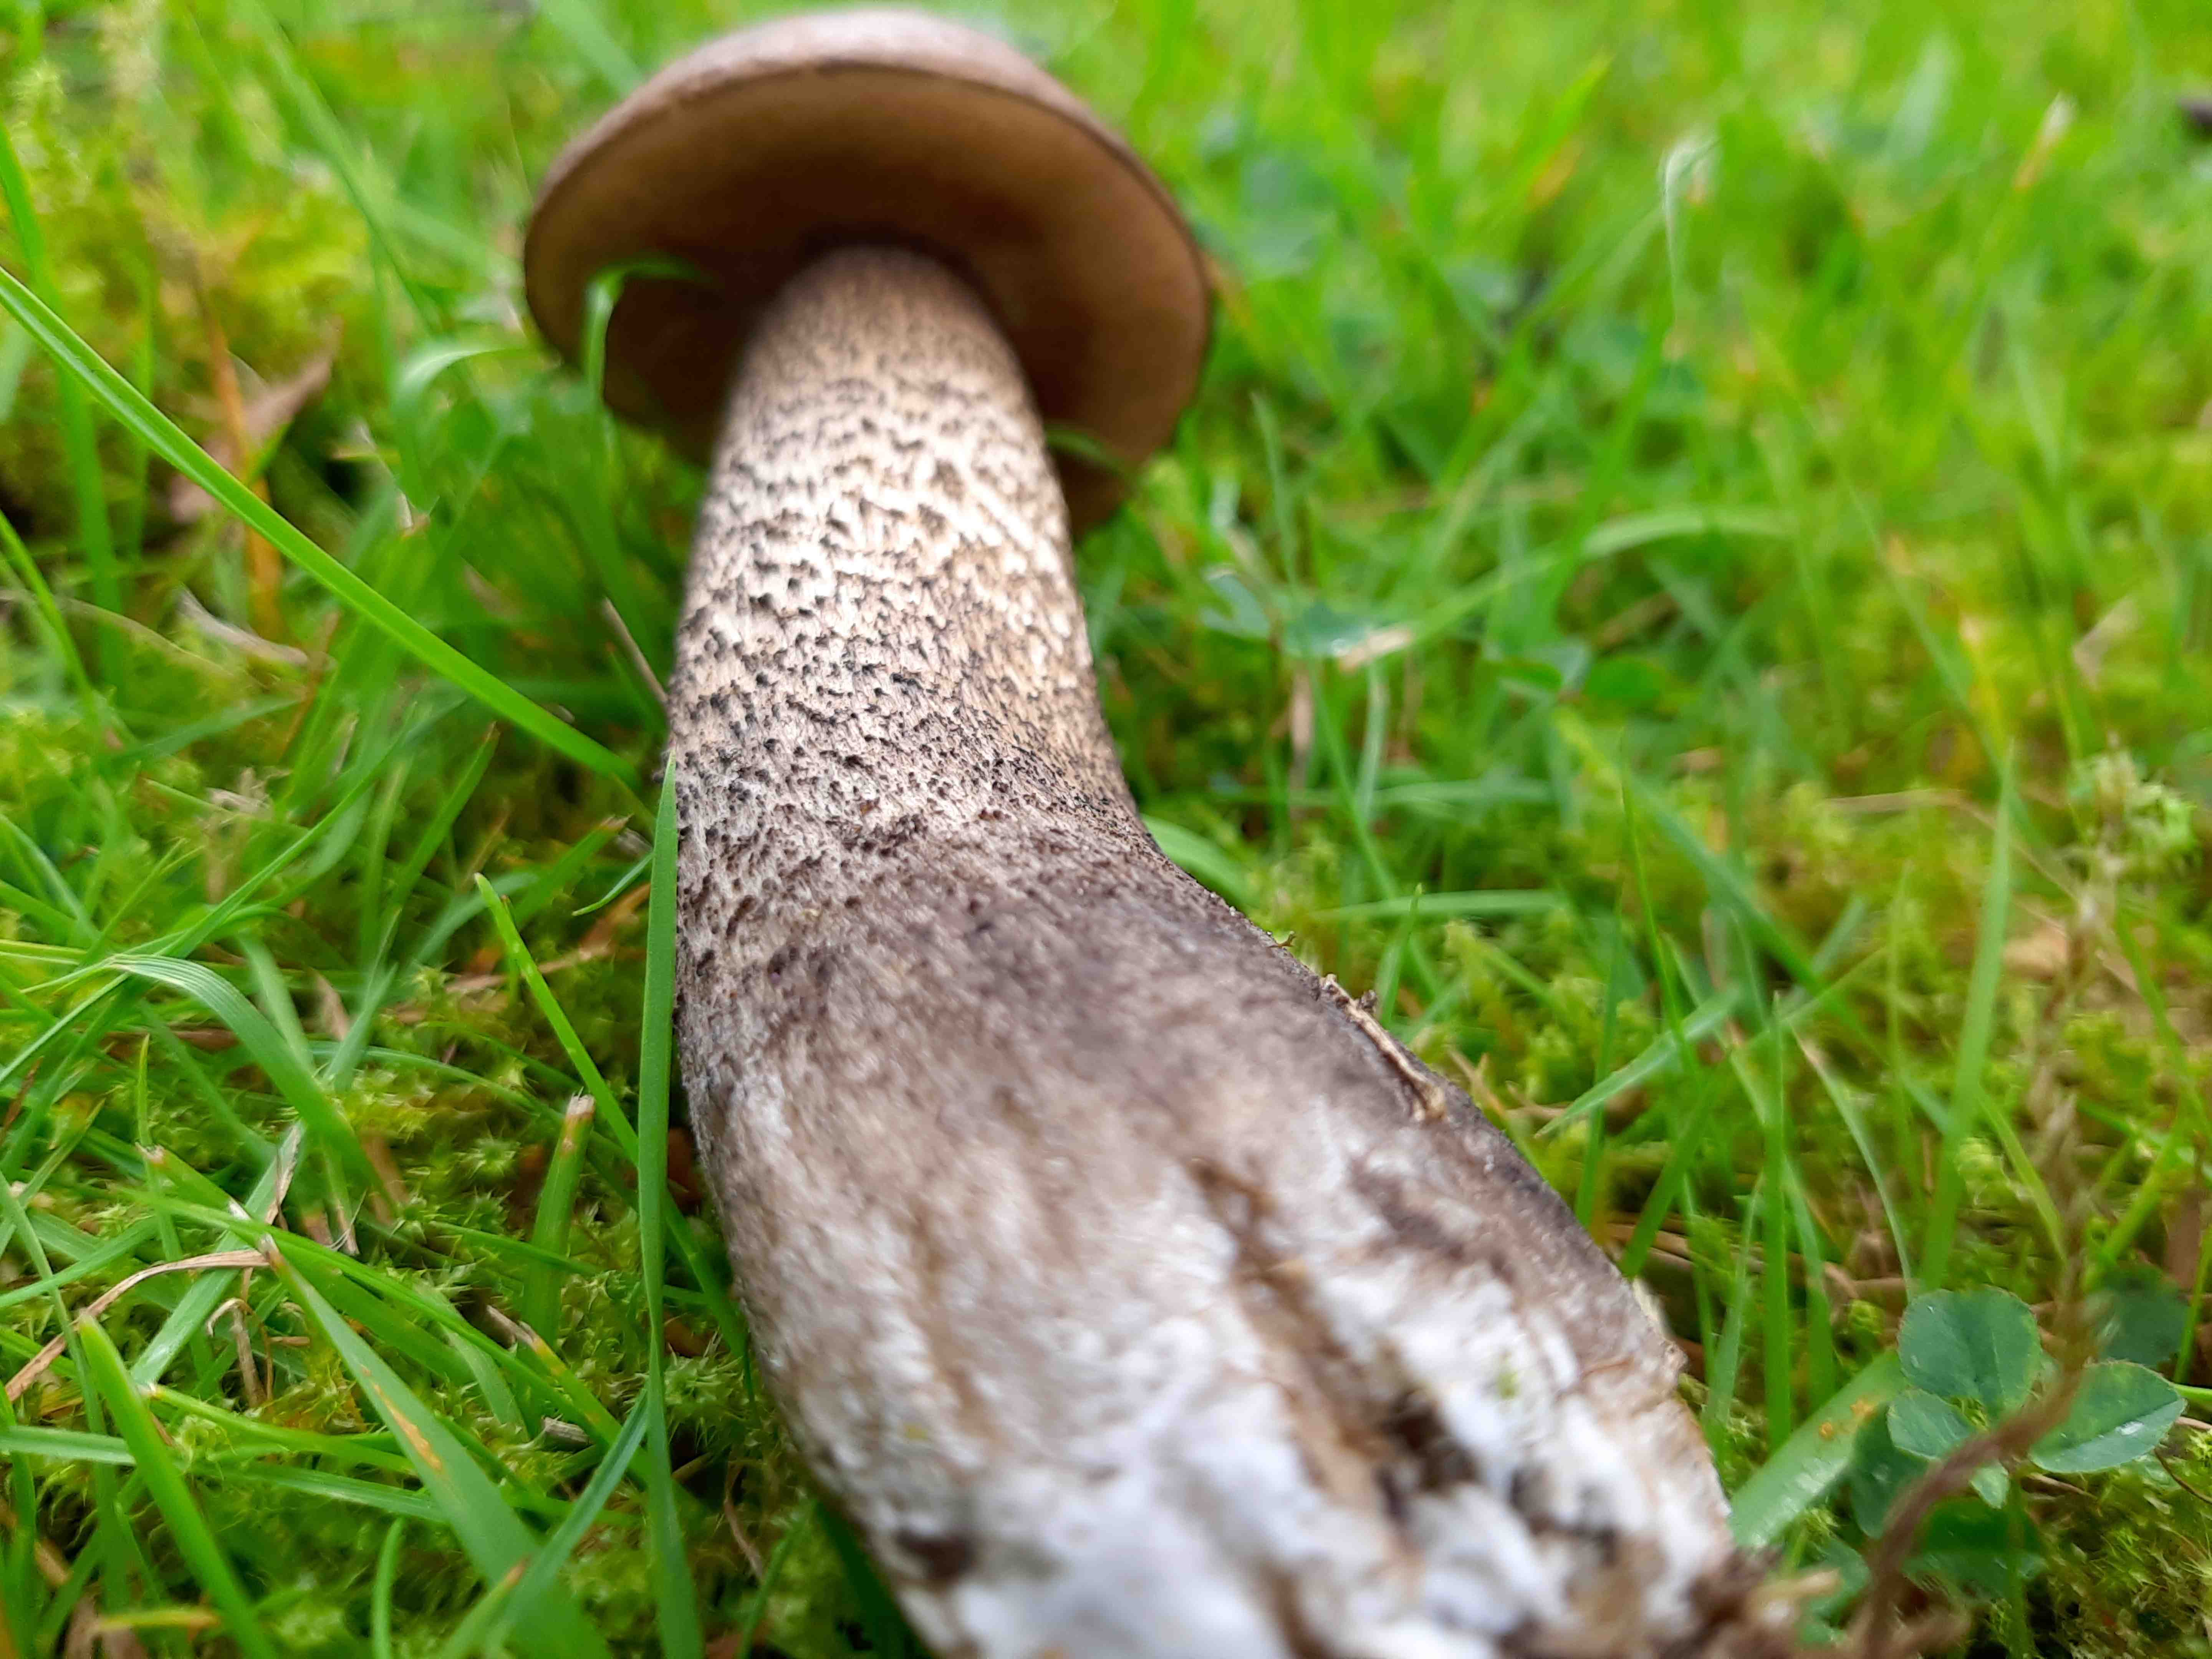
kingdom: Fungi
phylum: Basidiomycota
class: Agaricomycetes
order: Boletales
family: Boletaceae
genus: Leccinum
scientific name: Leccinum scabrum
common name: brun skælrørhat
